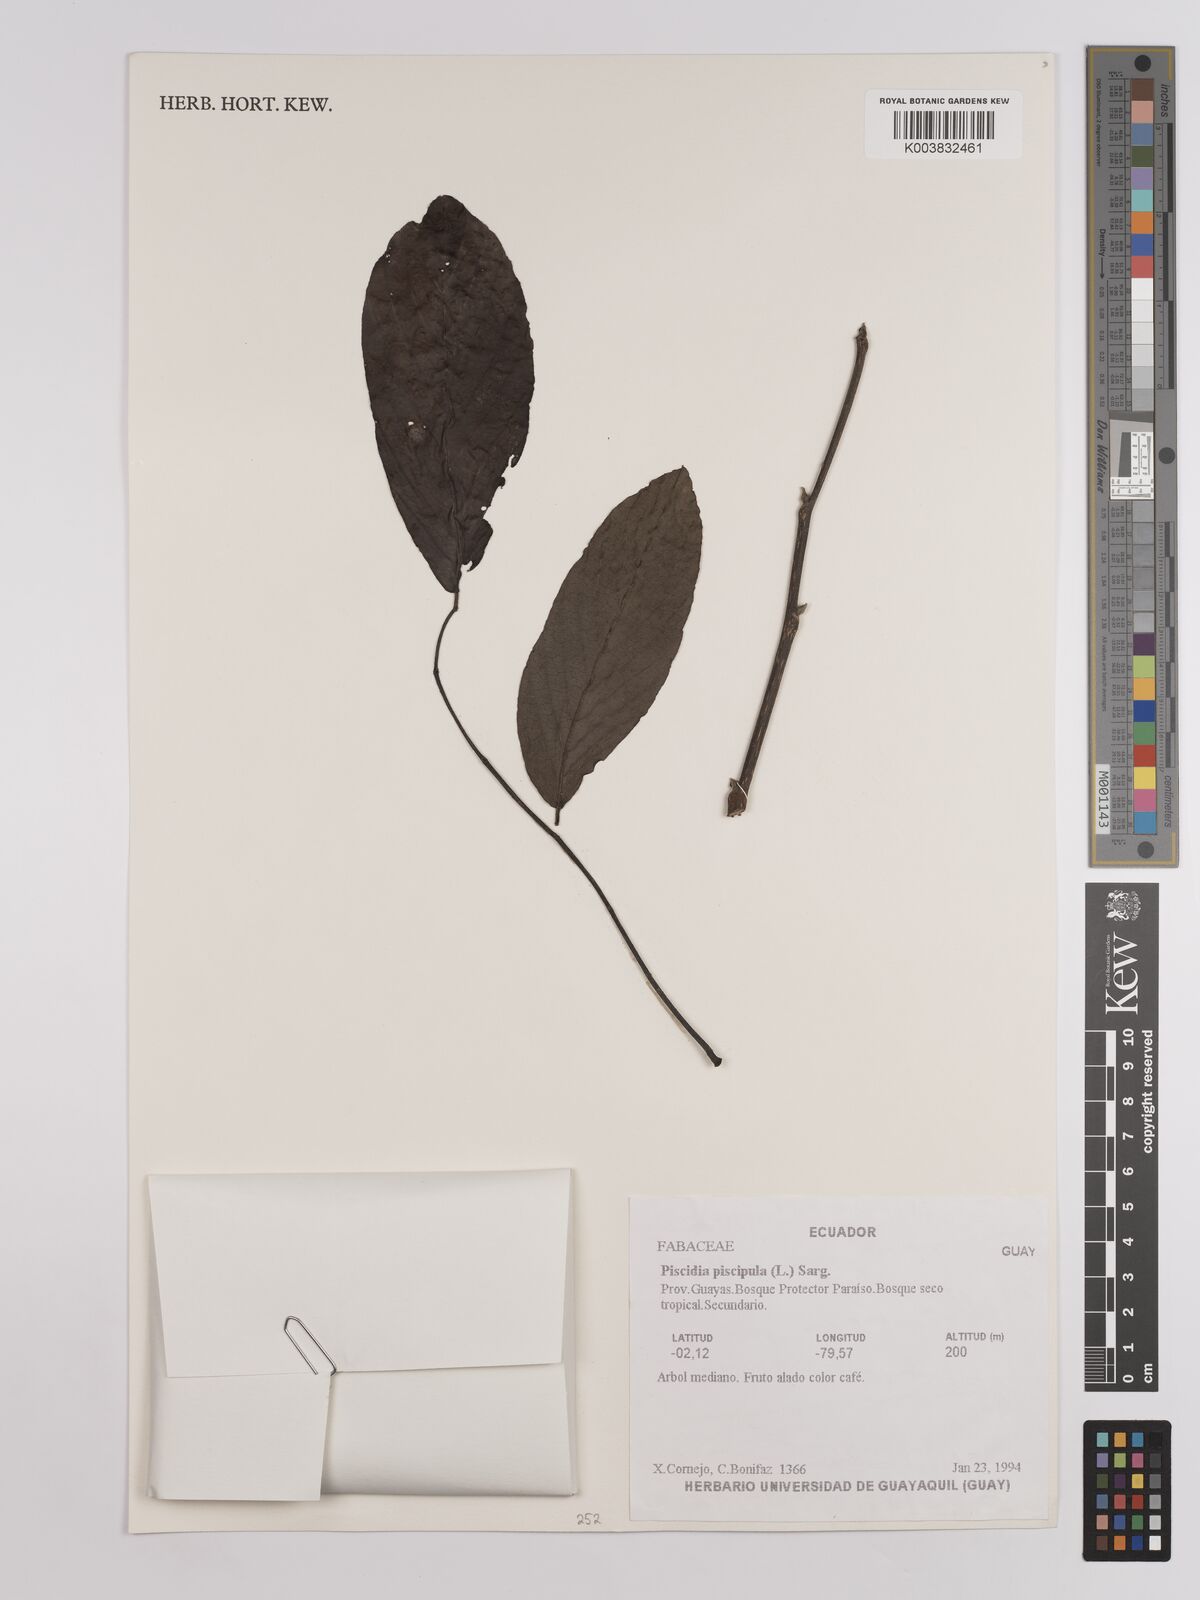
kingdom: Plantae
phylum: Tracheophyta
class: Magnoliopsida
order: Fabales
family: Fabaceae
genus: Piscidia
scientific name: Piscidia piscipula
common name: Florida fishpoison tree
